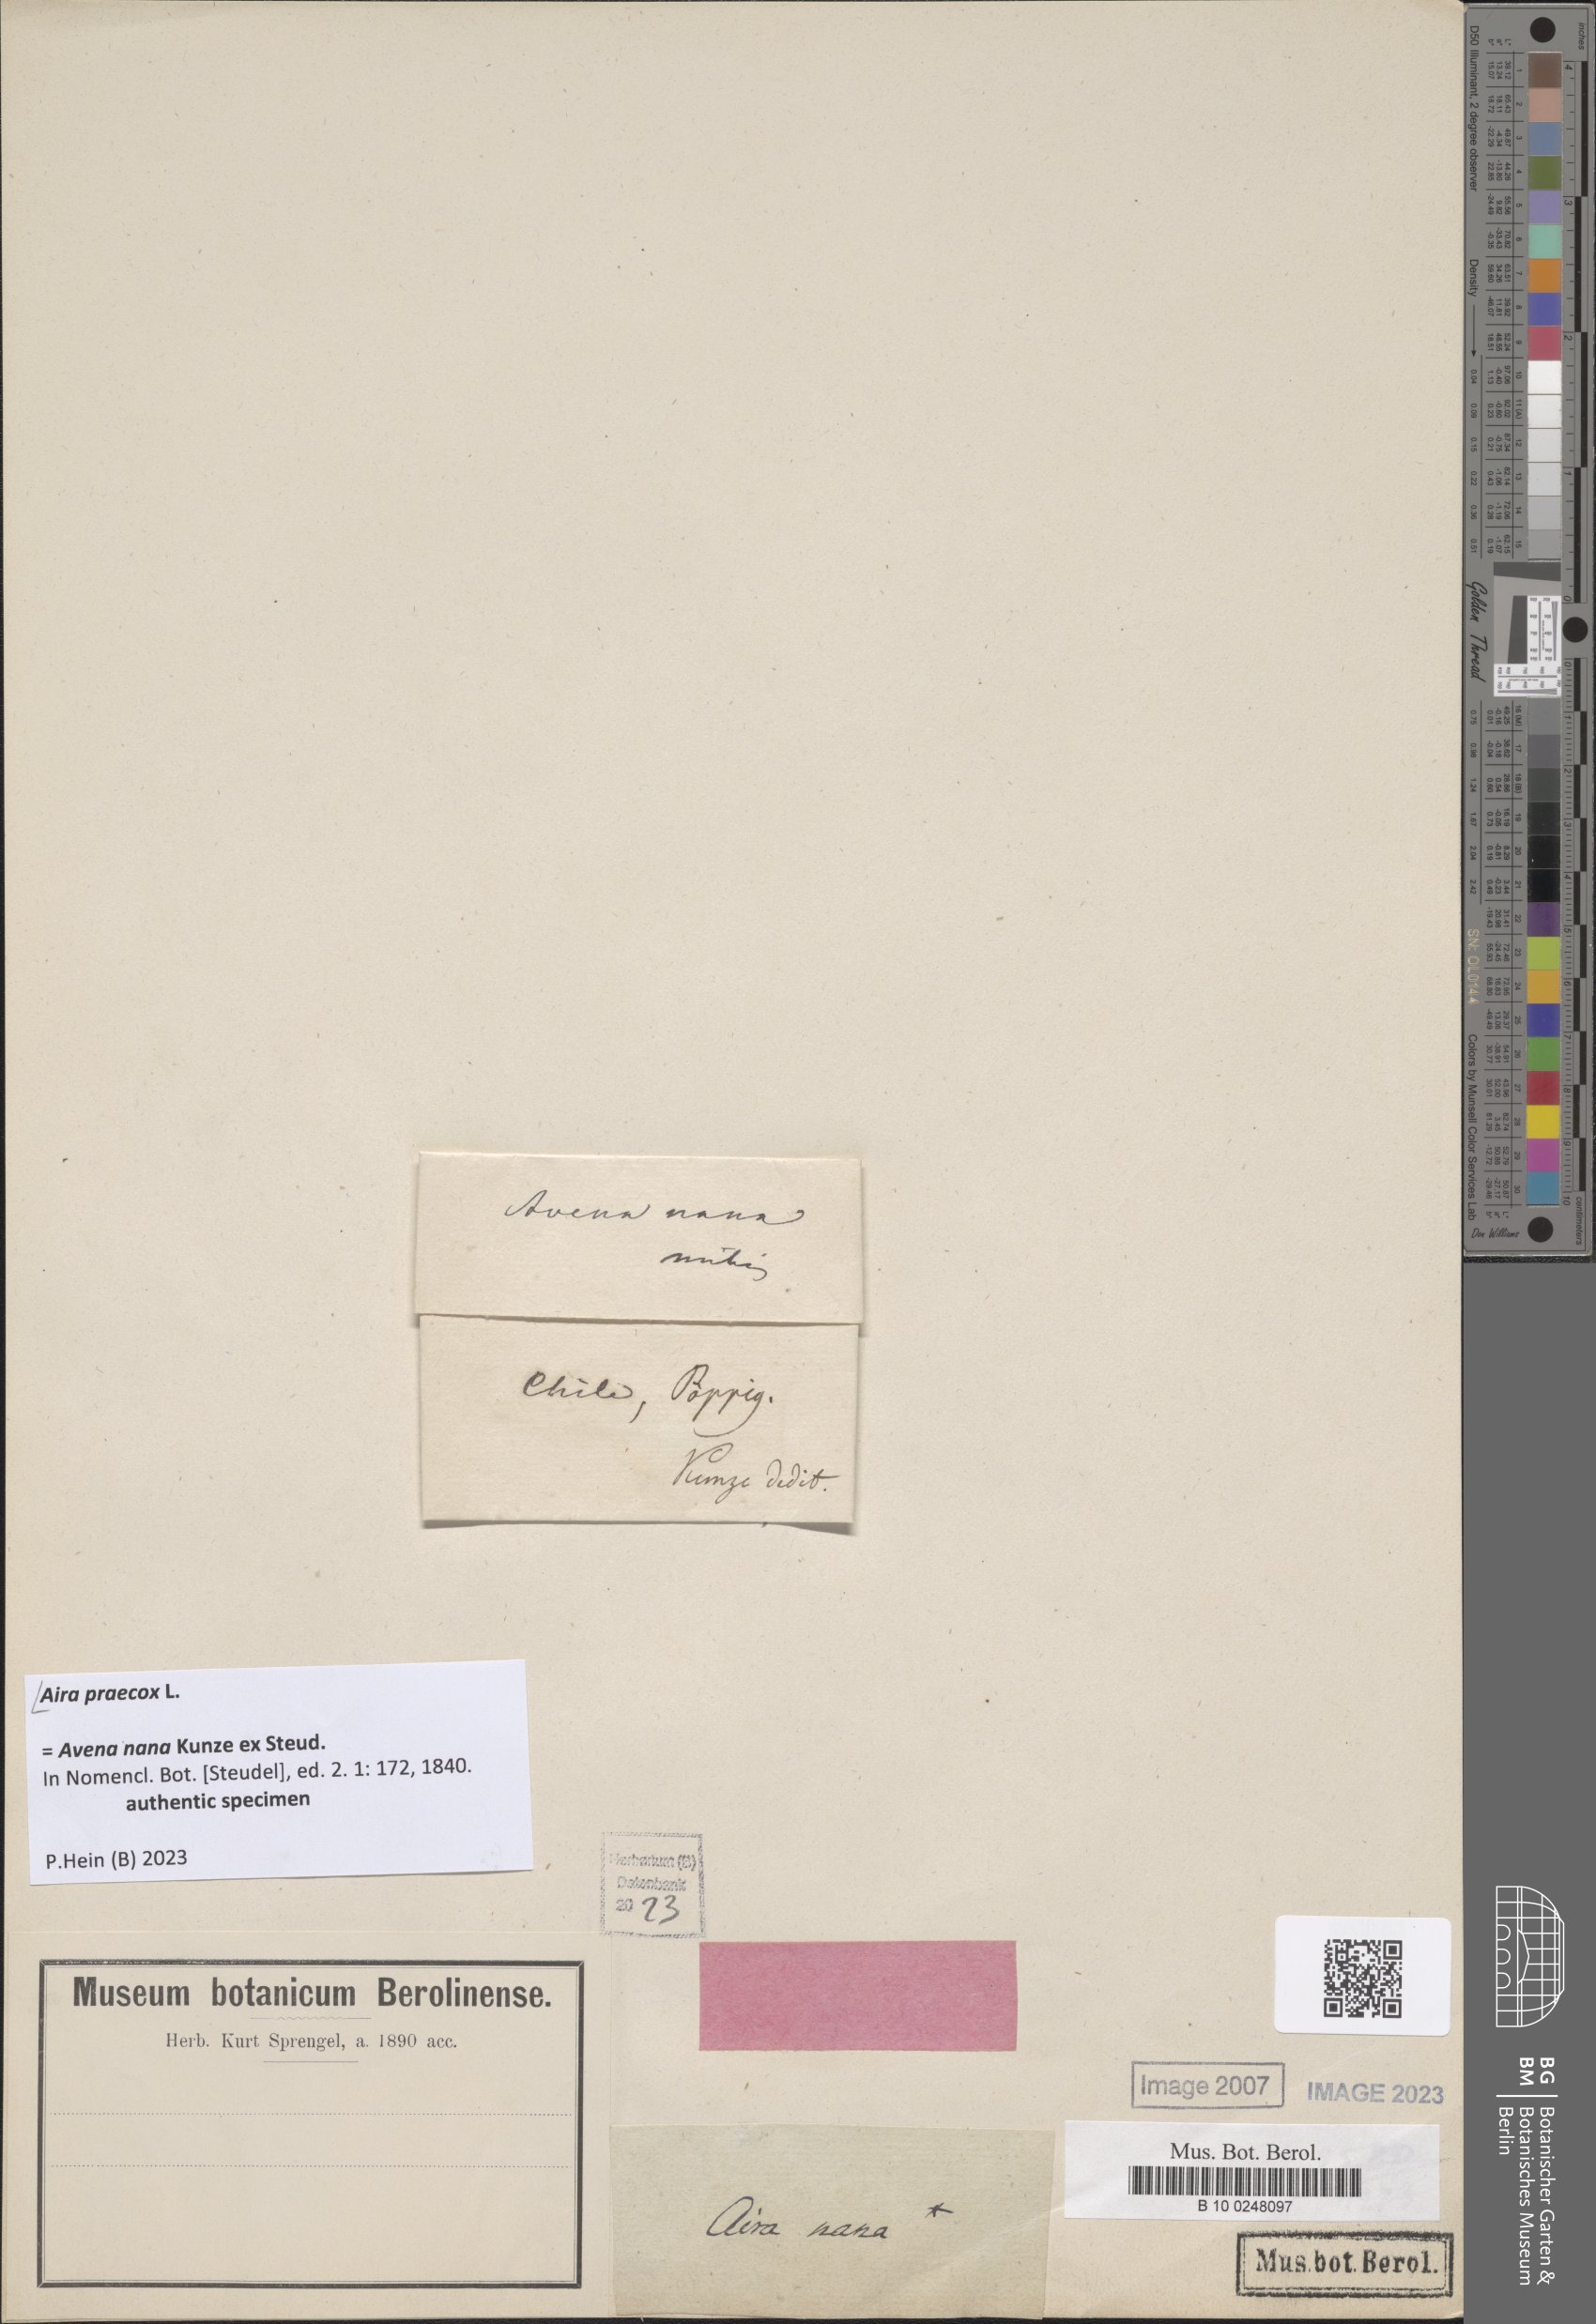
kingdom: Plantae
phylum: Tracheophyta
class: Liliopsida
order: Poales
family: Poaceae
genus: Aira
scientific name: Aira praecox
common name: Early hair-grass
